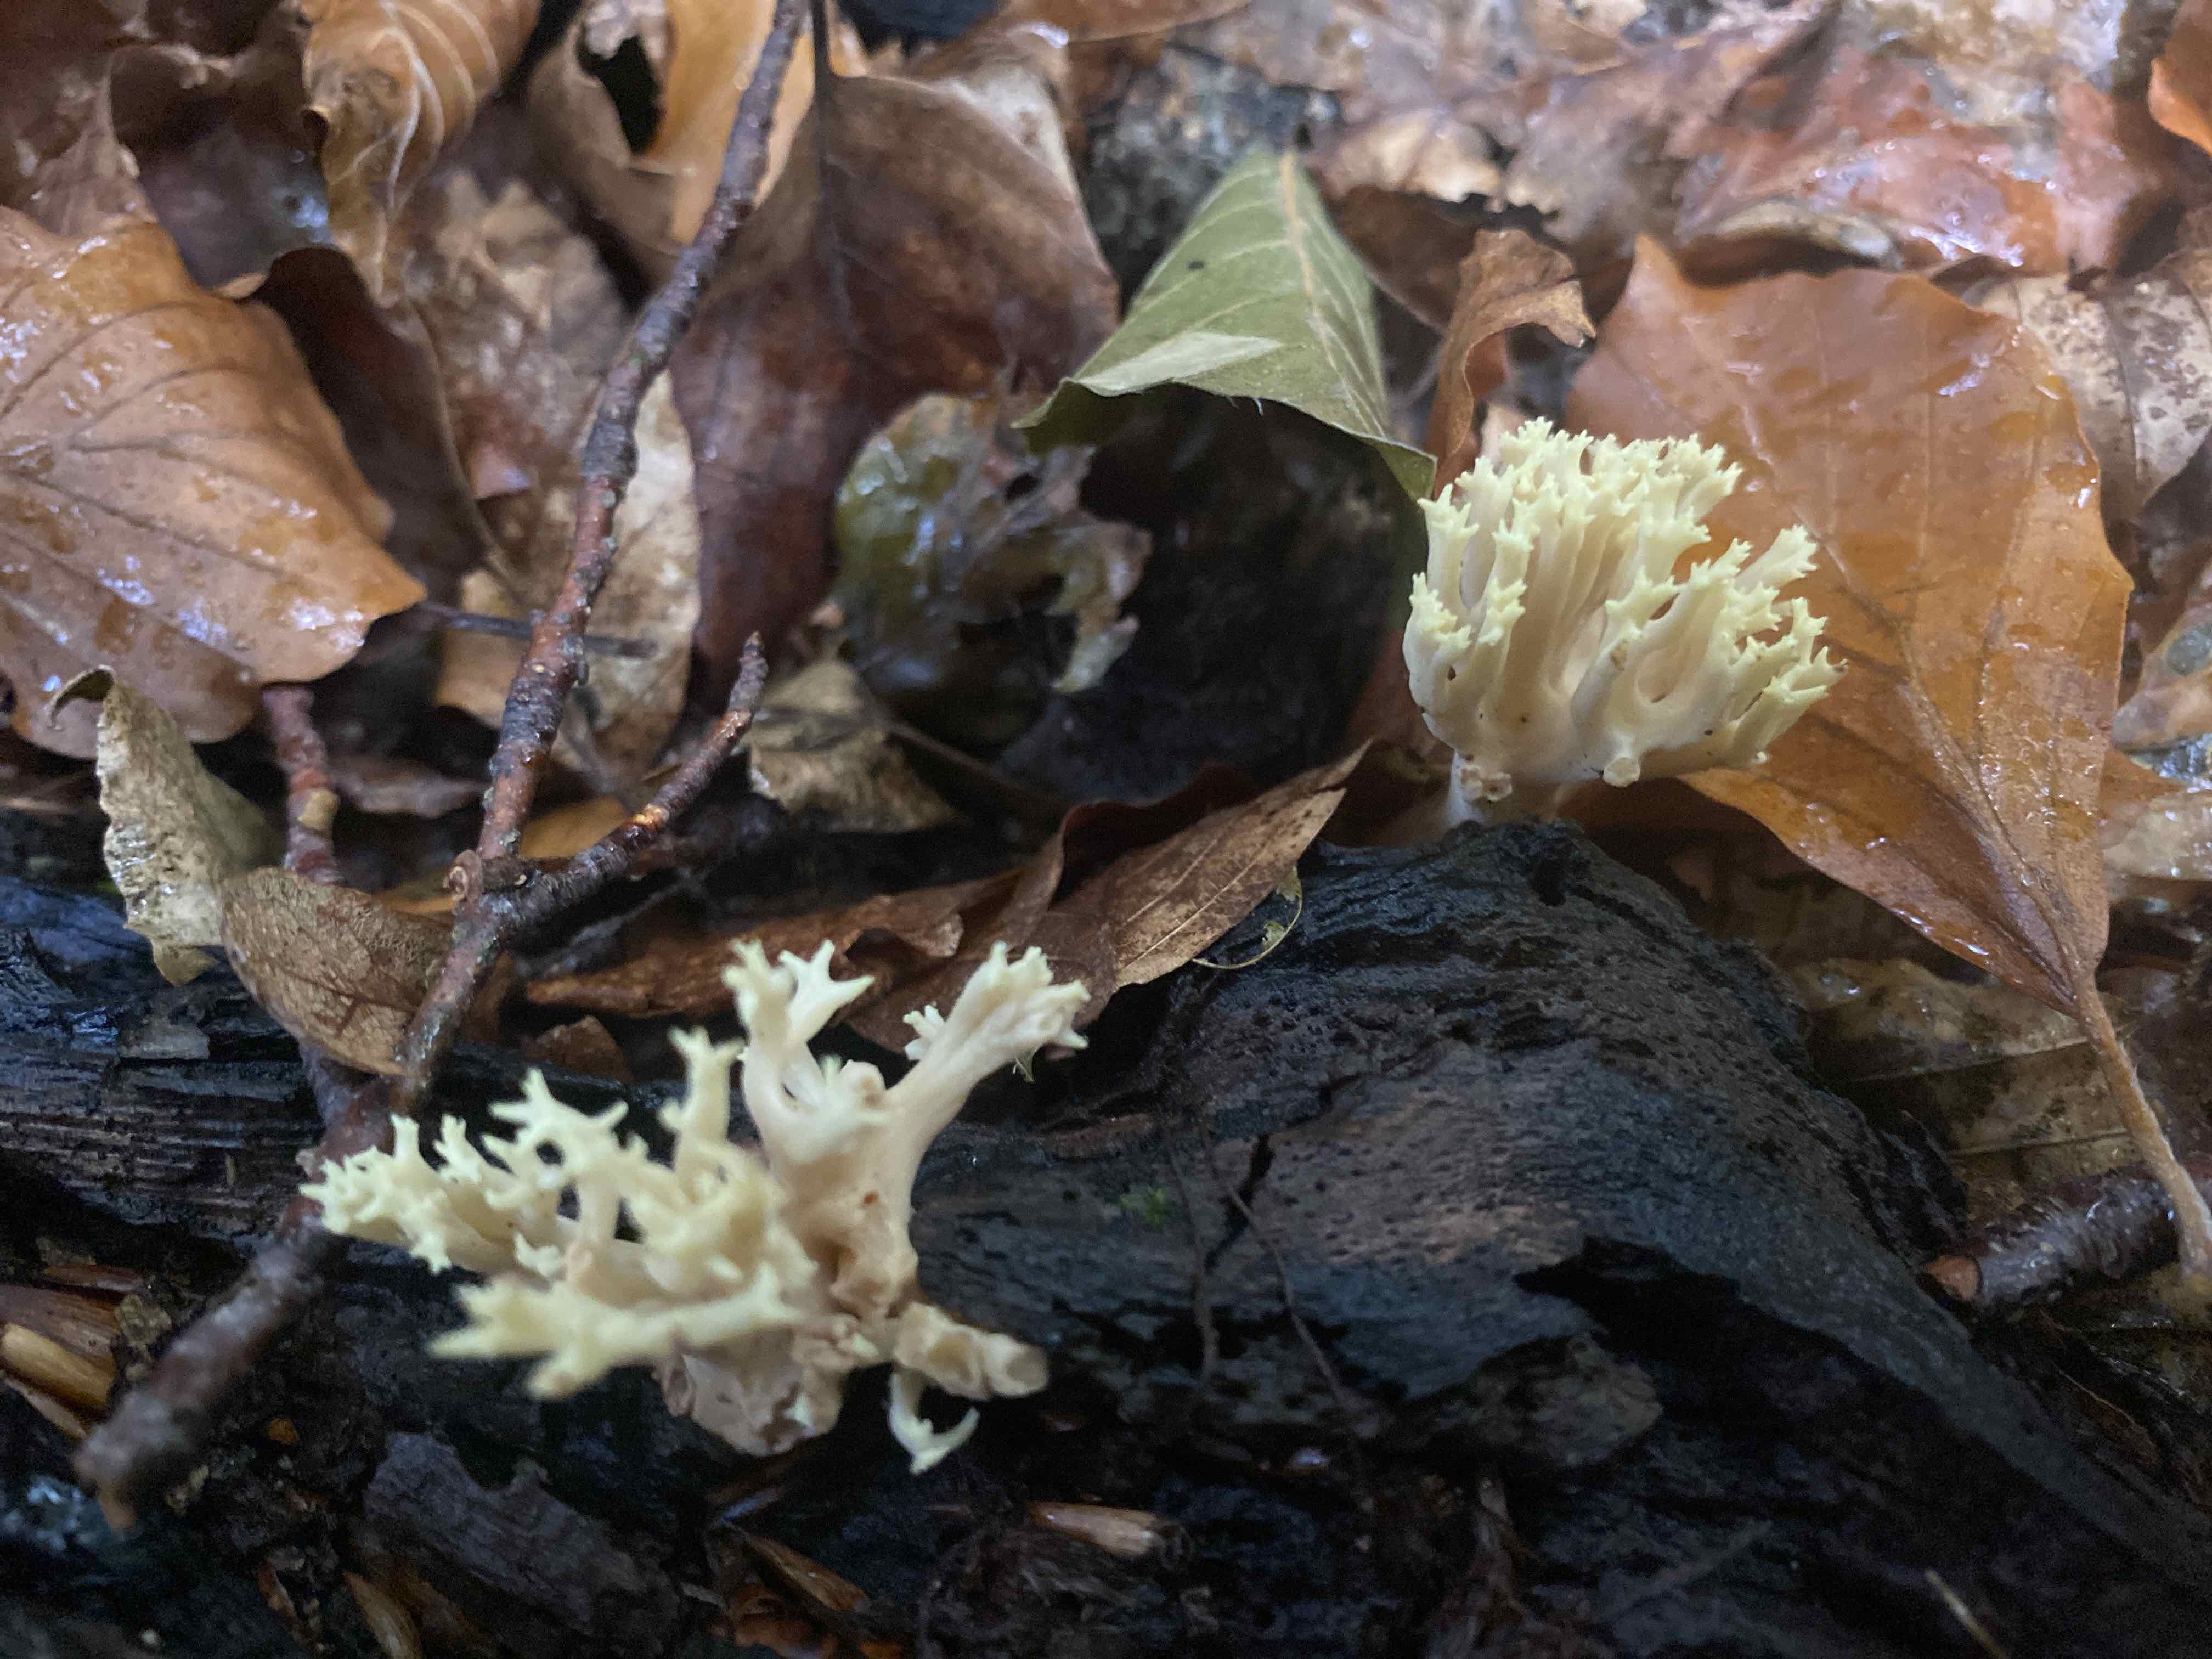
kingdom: Fungi
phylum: Basidiomycota
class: Agaricomycetes
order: Gomphales
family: Gomphaceae
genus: Ramaria
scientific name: Ramaria stricta
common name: rank koralsvamp
